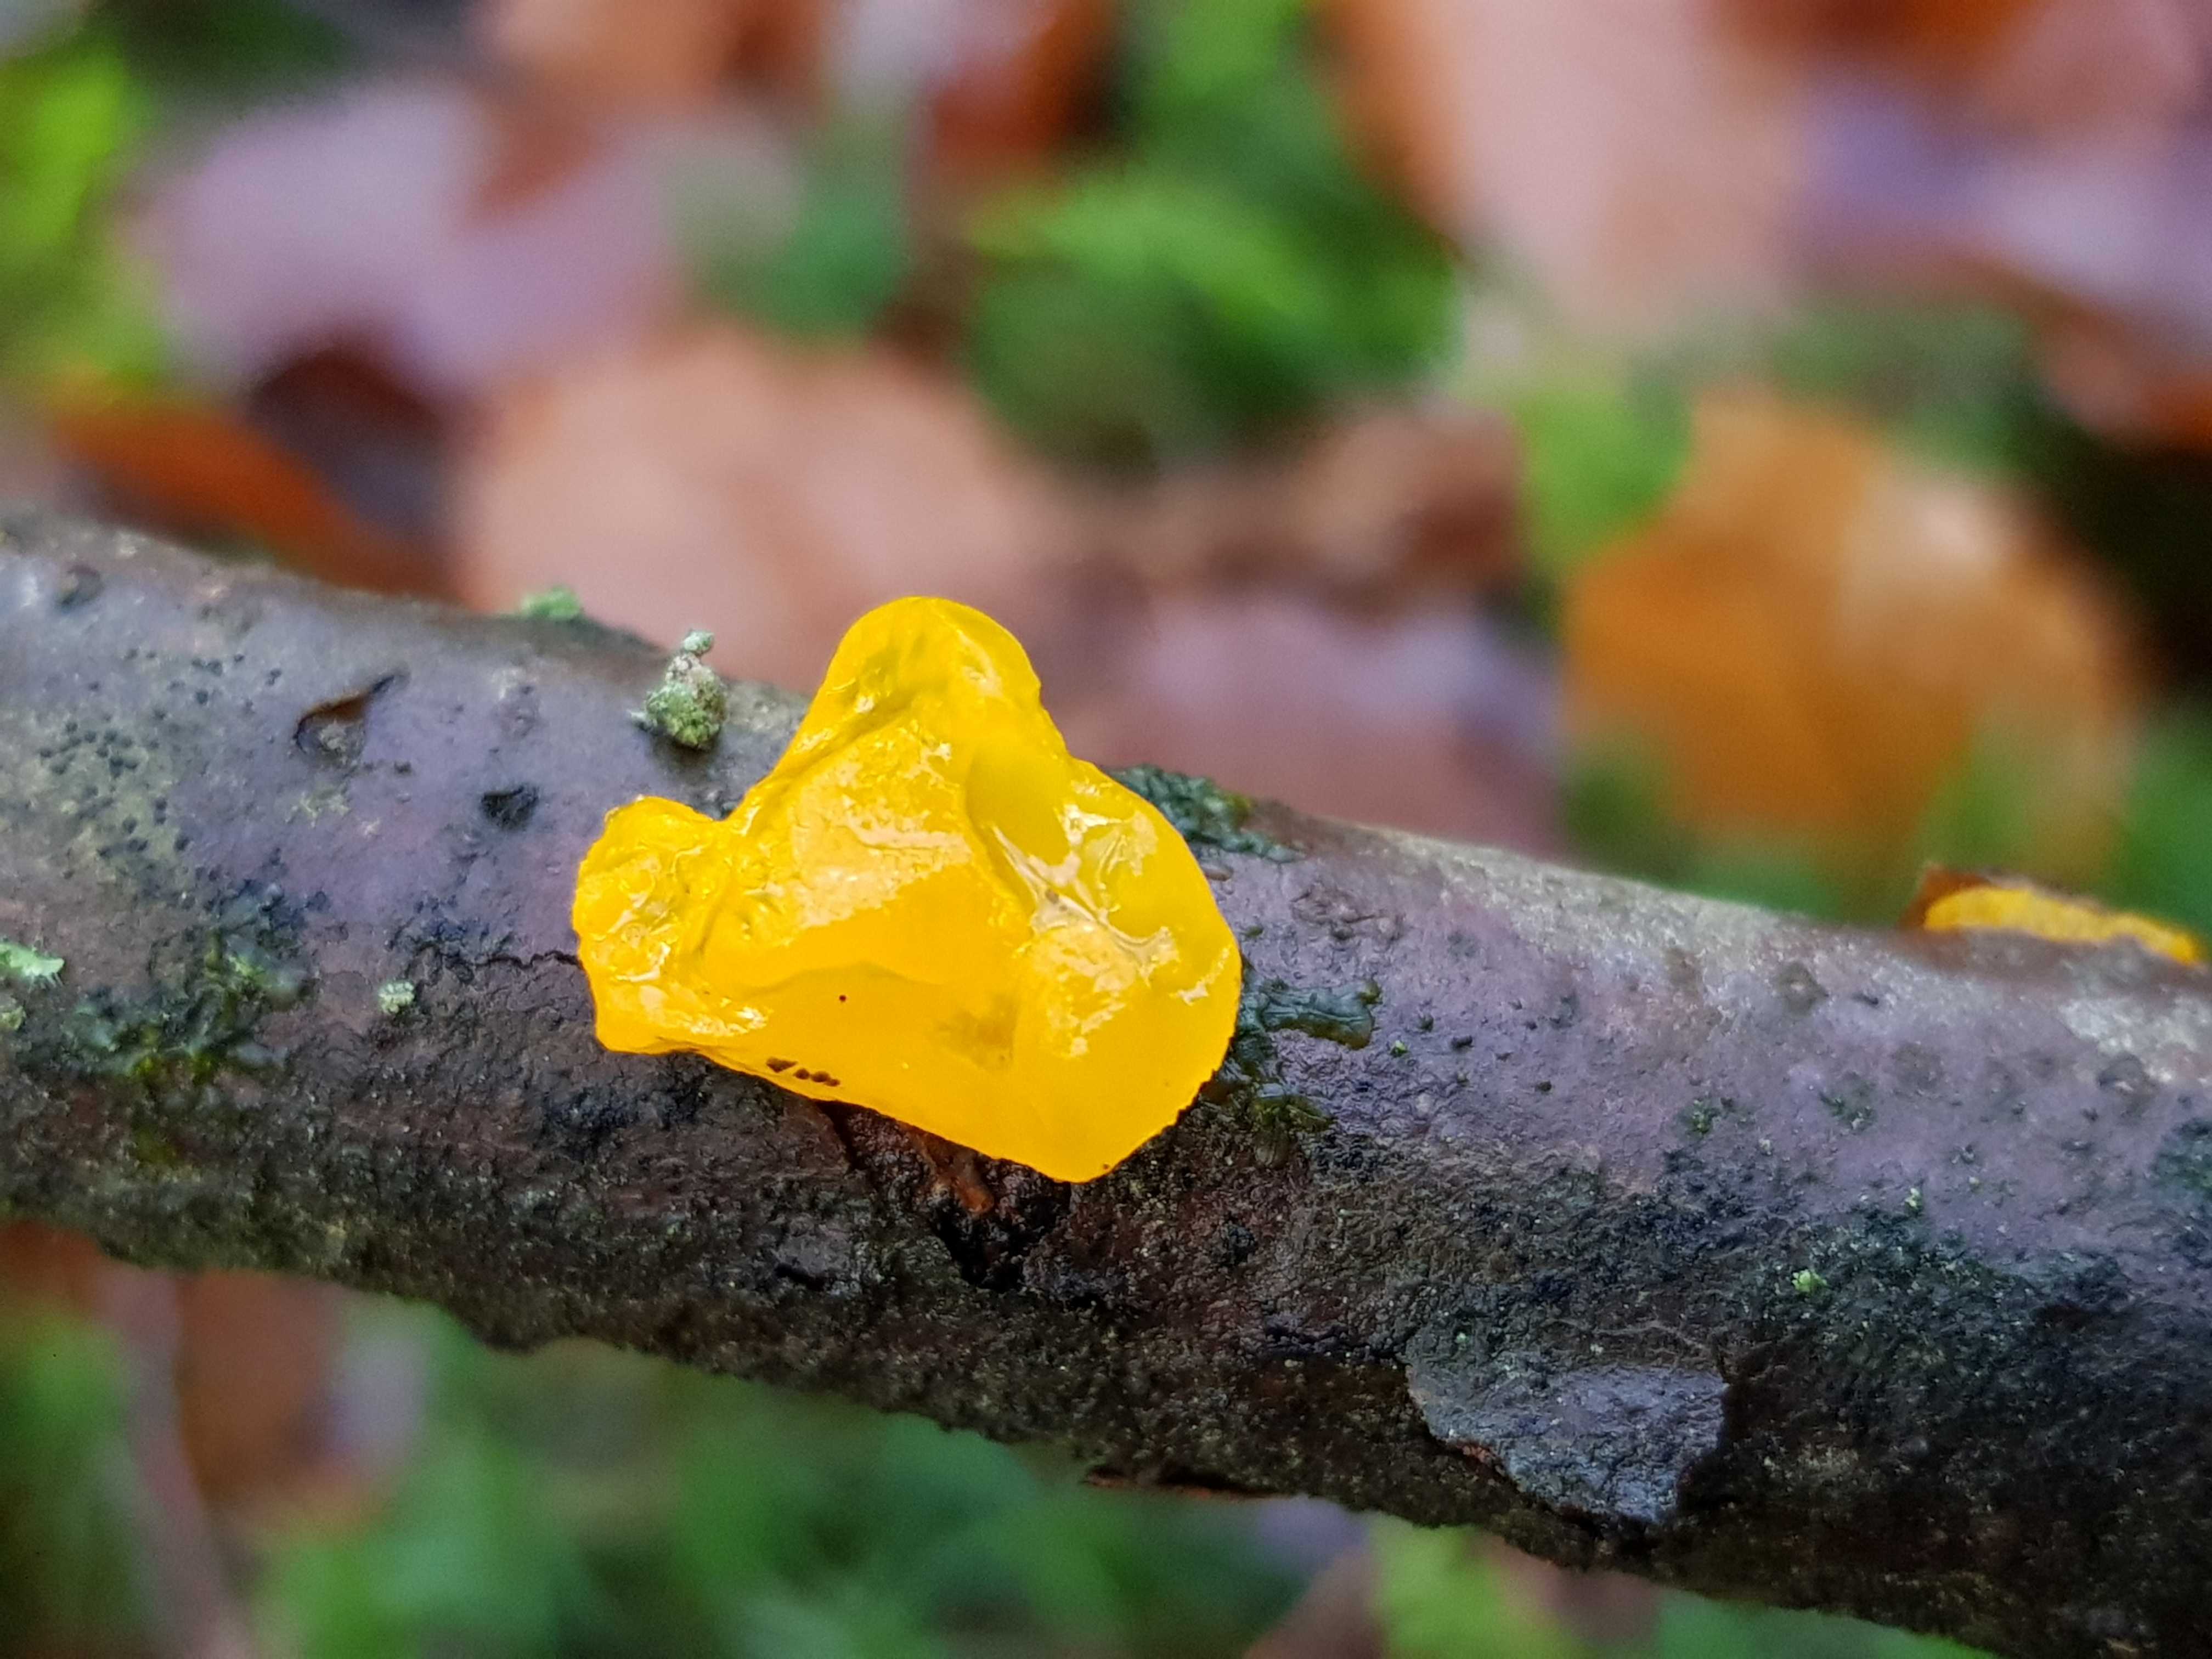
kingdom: Fungi
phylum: Basidiomycota
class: Tremellomycetes
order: Tremellales
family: Tremellaceae
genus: Tremella
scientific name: Tremella mesenterica
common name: gul bævresvamp
